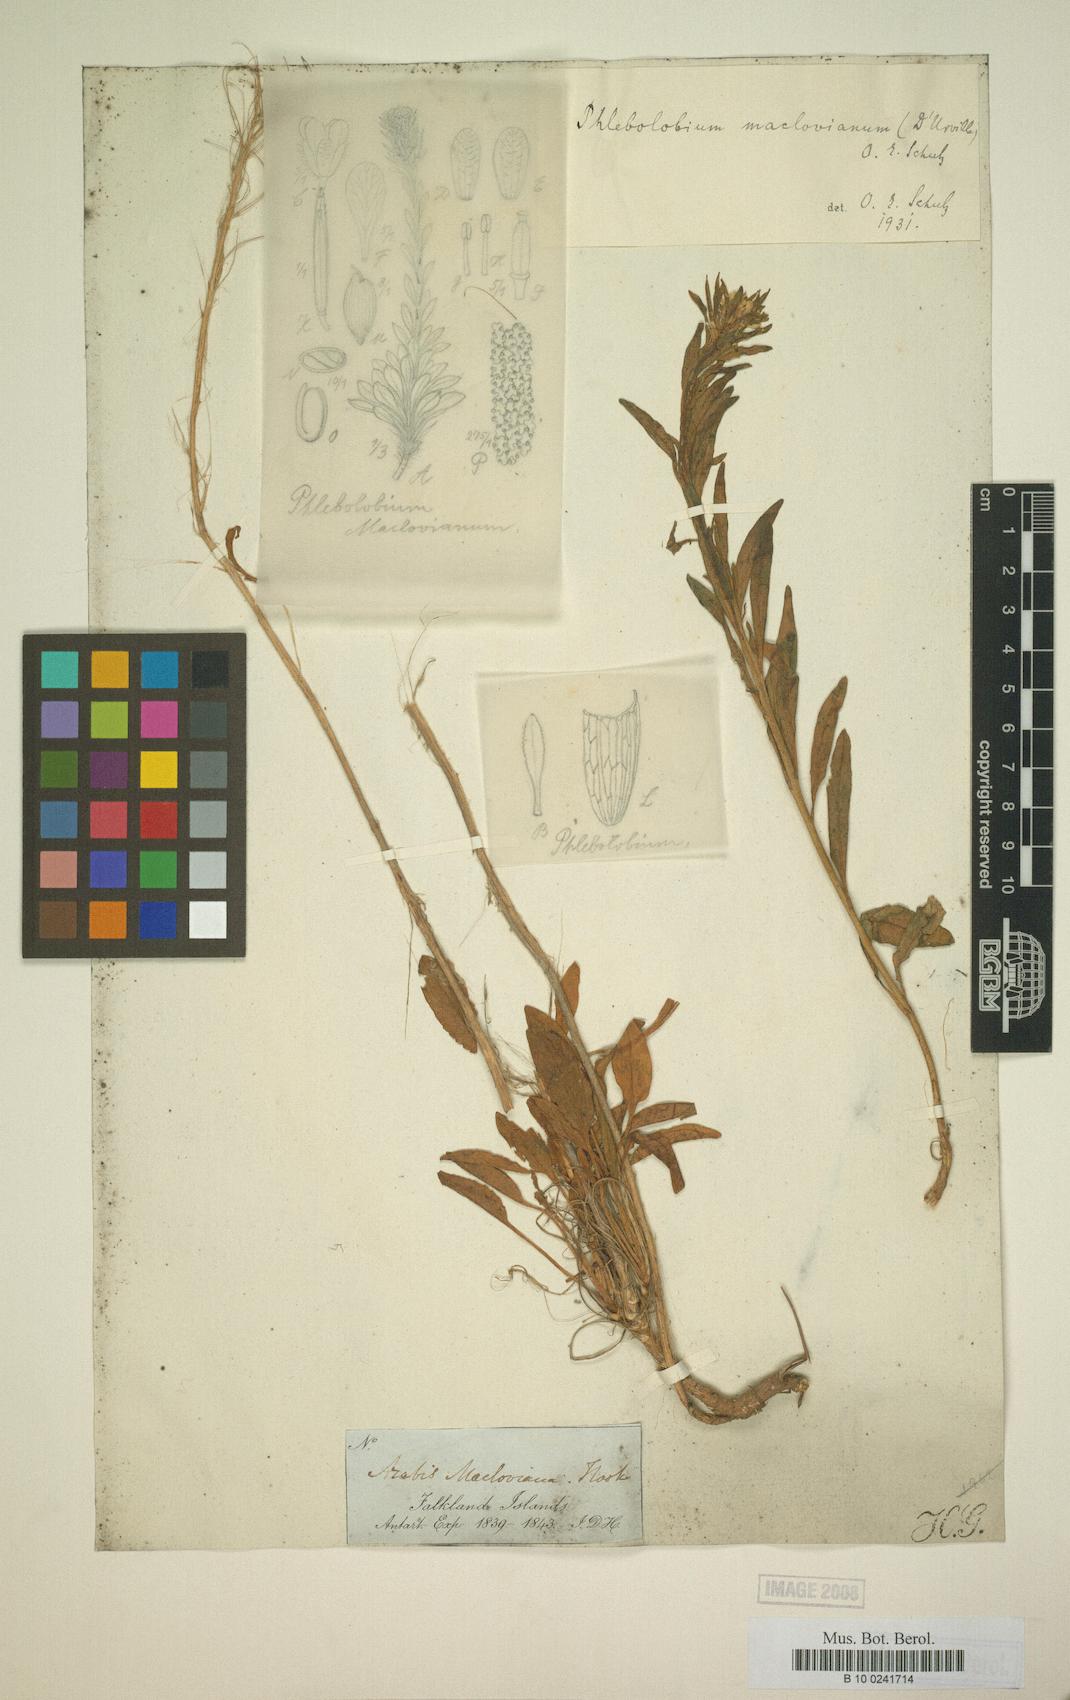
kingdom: Plantae
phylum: Tracheophyta
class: Magnoliopsida
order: Brassicales
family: Brassicaceae
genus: Phlebolobium
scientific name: Phlebolobium maclovianum
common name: Falkland rock-cress
